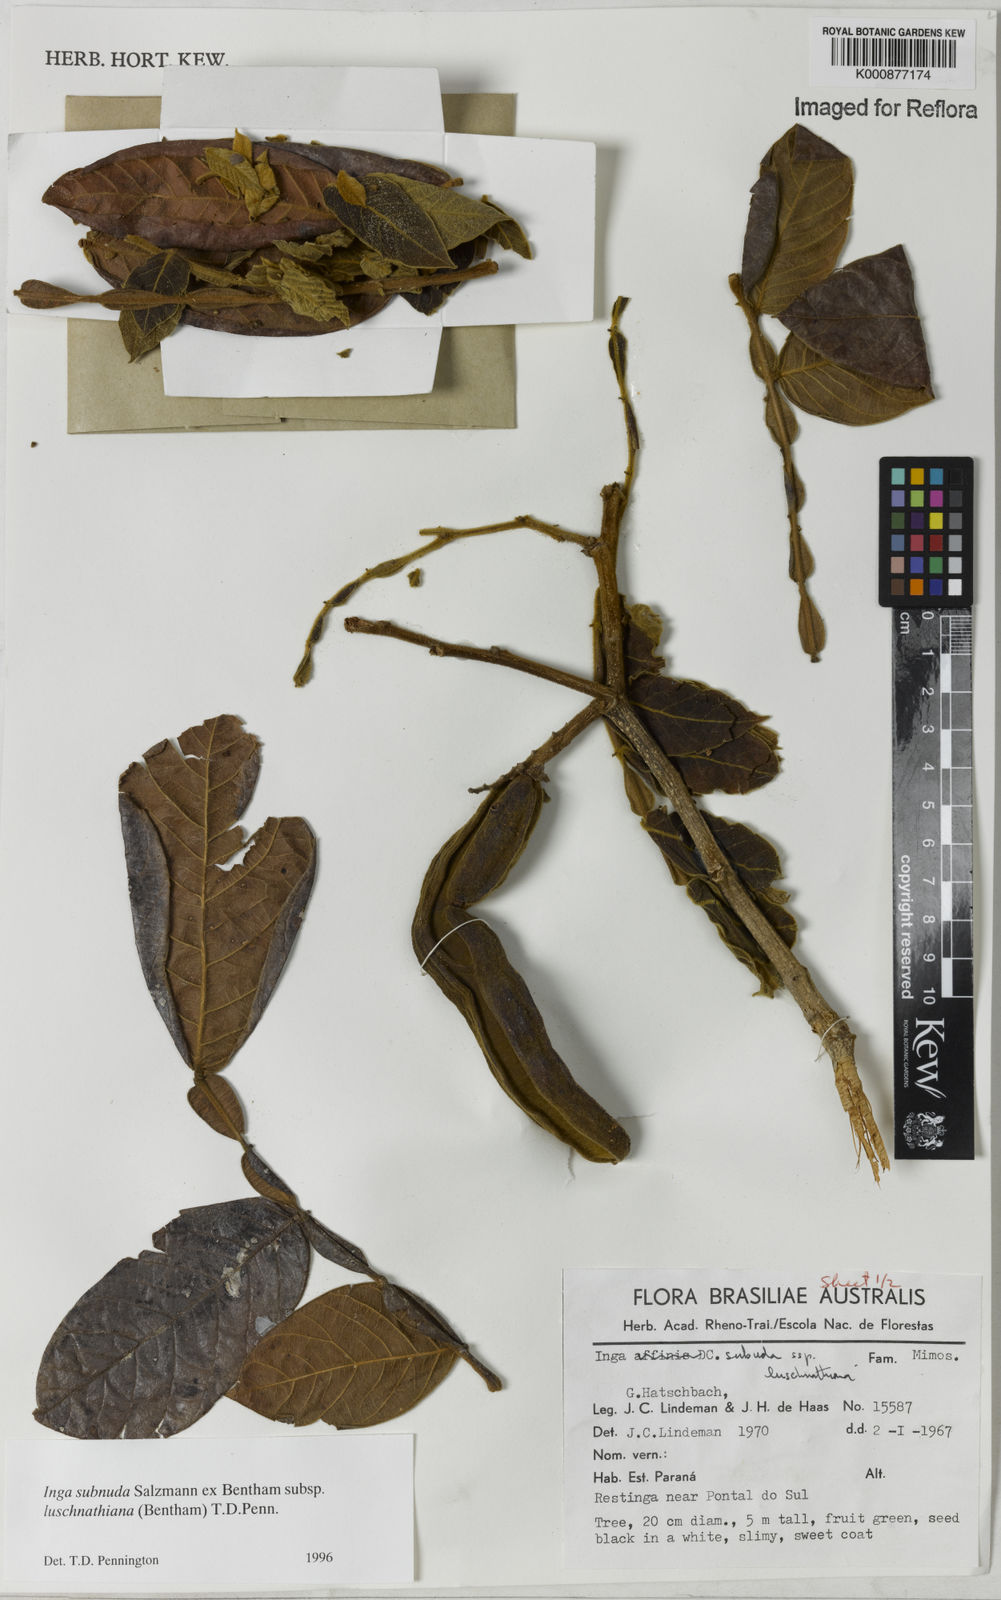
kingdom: Plantae
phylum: Tracheophyta
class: Magnoliopsida
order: Fabales
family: Fabaceae
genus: Inga
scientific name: Inga subnuda
